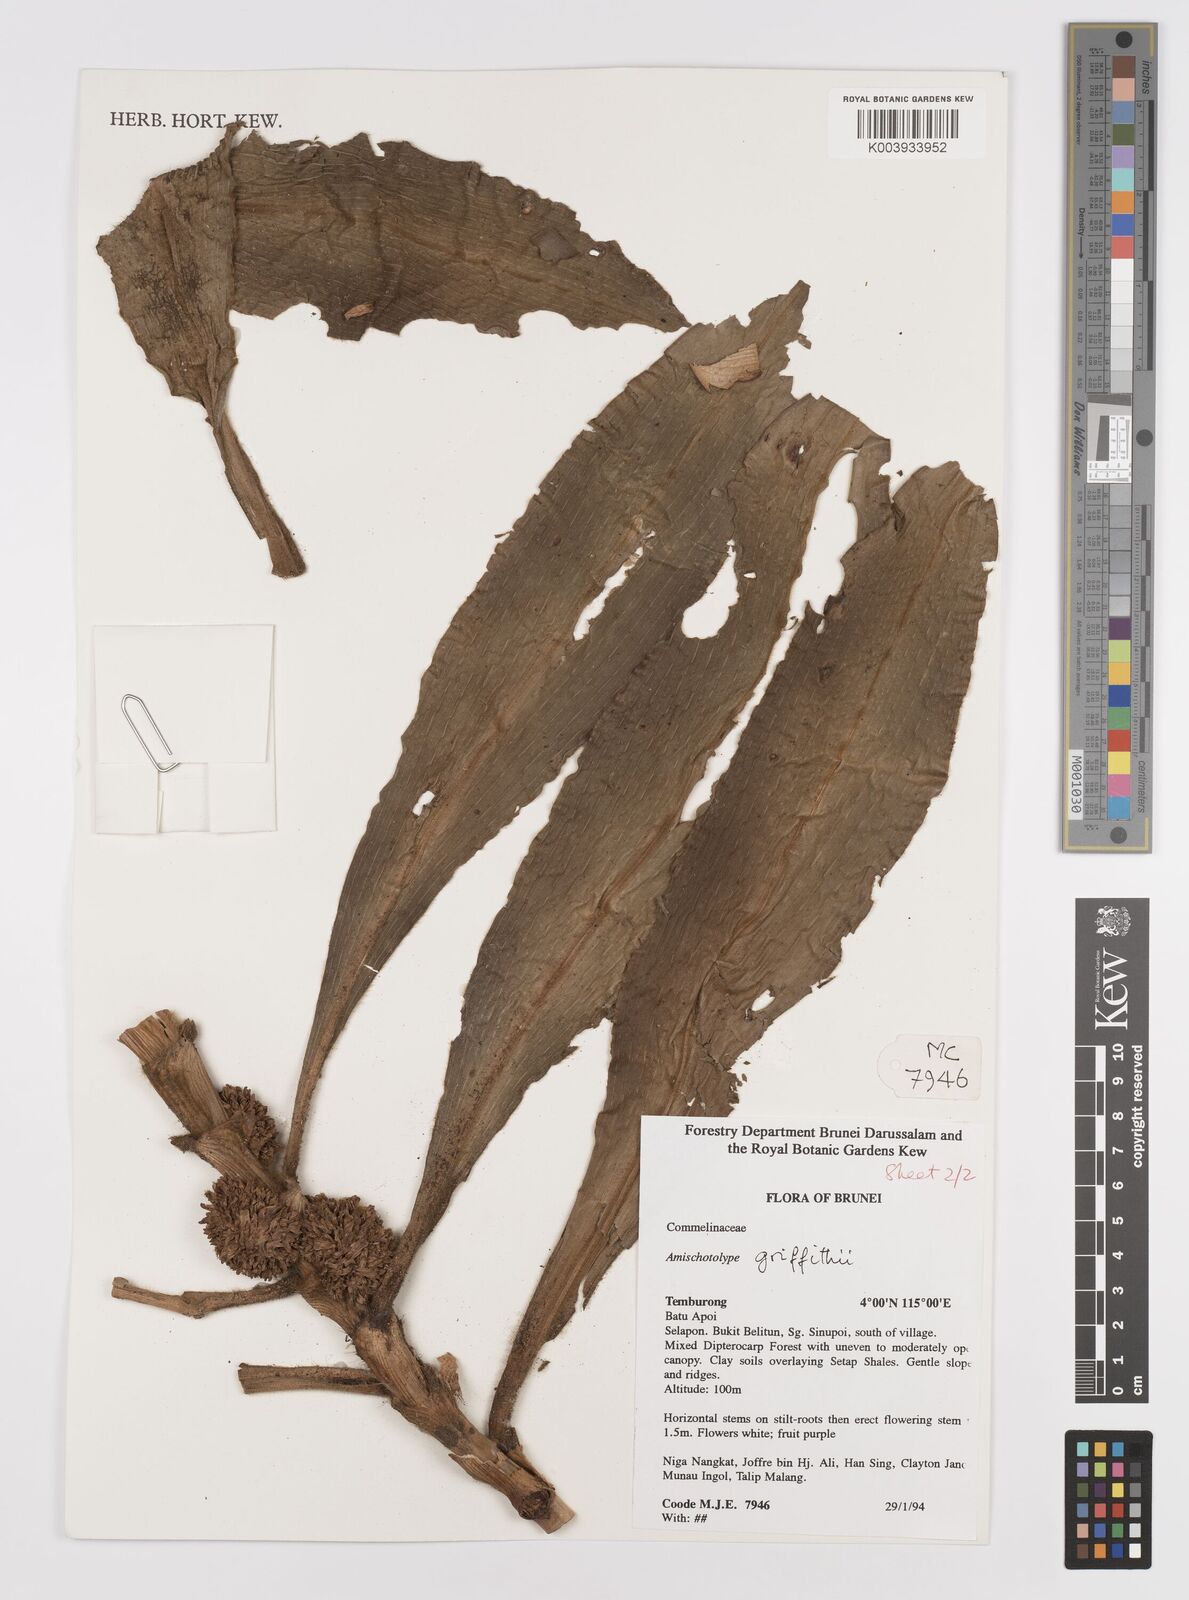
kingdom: Plantae
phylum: Tracheophyta
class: Liliopsida
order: Commelinales
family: Commelinaceae
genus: Amischotolype
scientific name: Amischotolype griffithii
